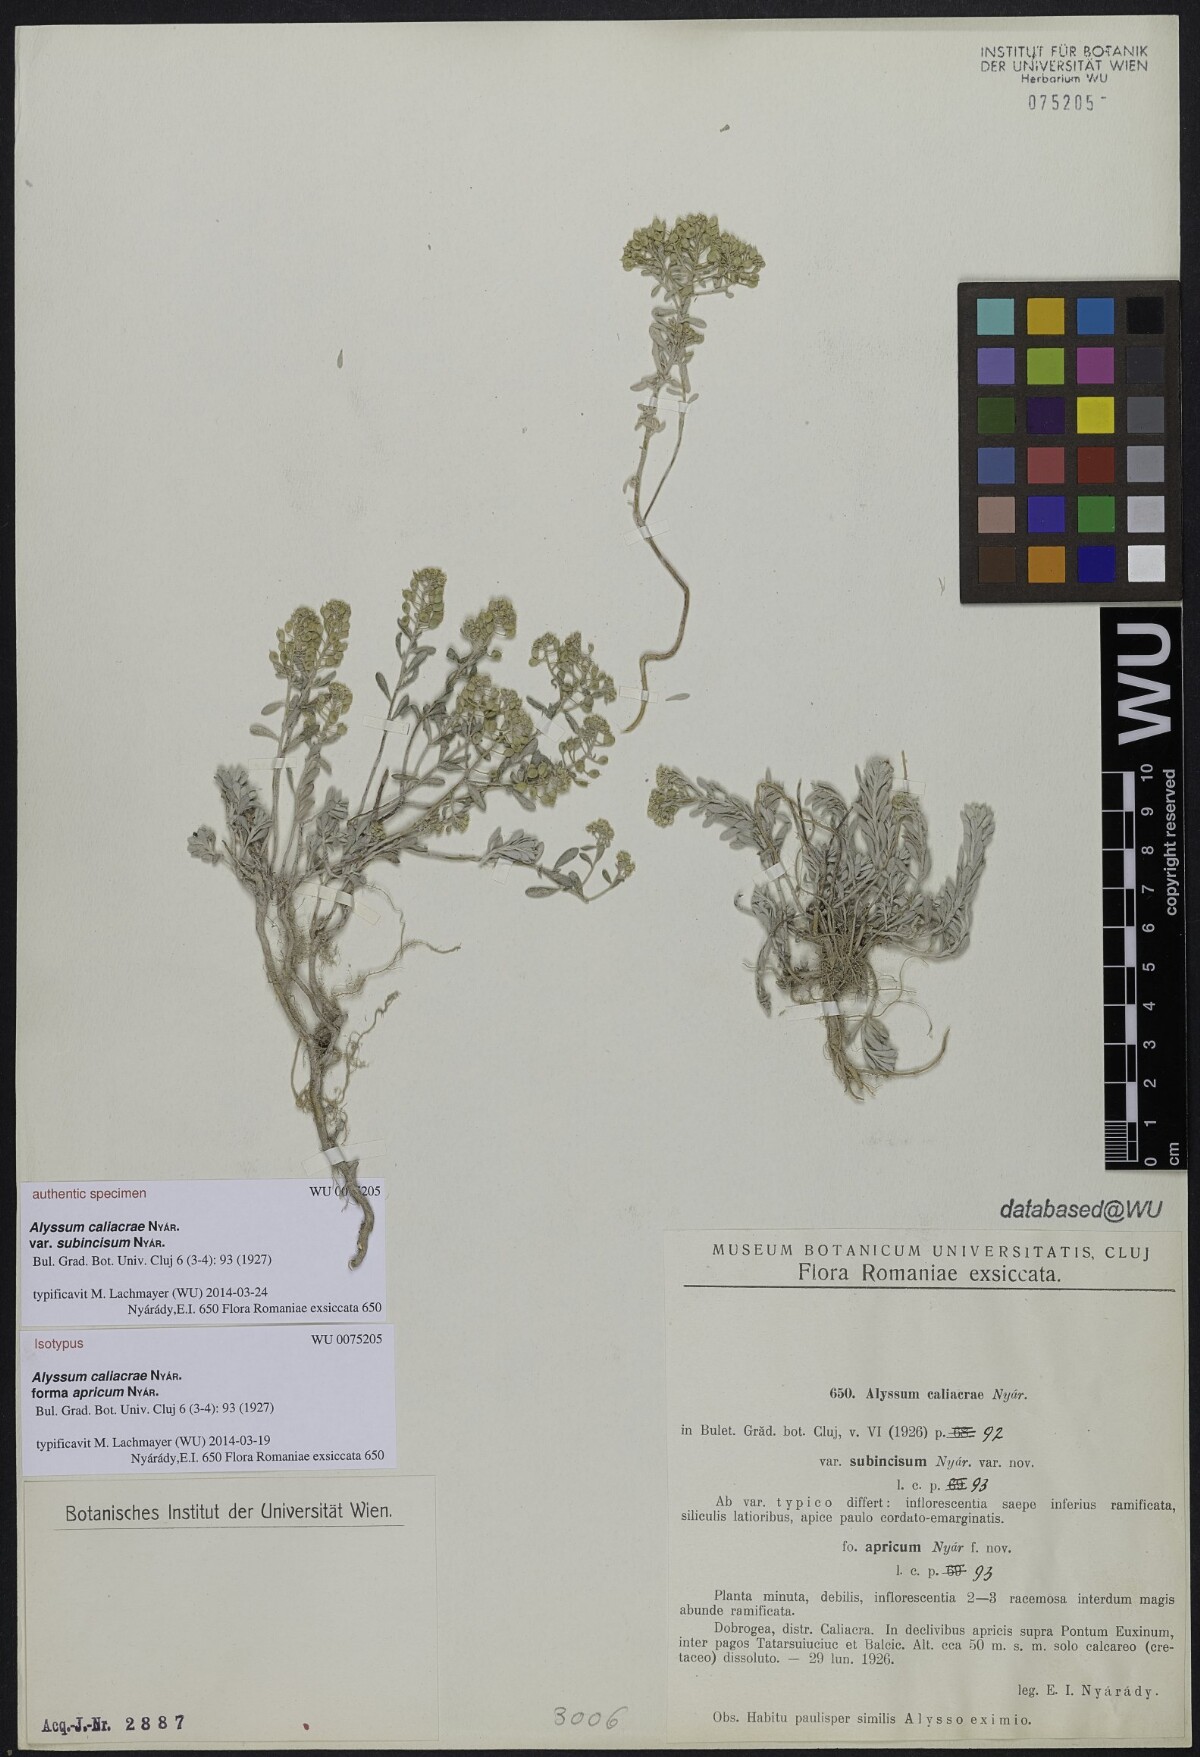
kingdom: Plantae
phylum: Tracheophyta
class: Magnoliopsida
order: Brassicales
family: Brassicaceae
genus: Odontarrhena
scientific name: Odontarrhena caliacrae
